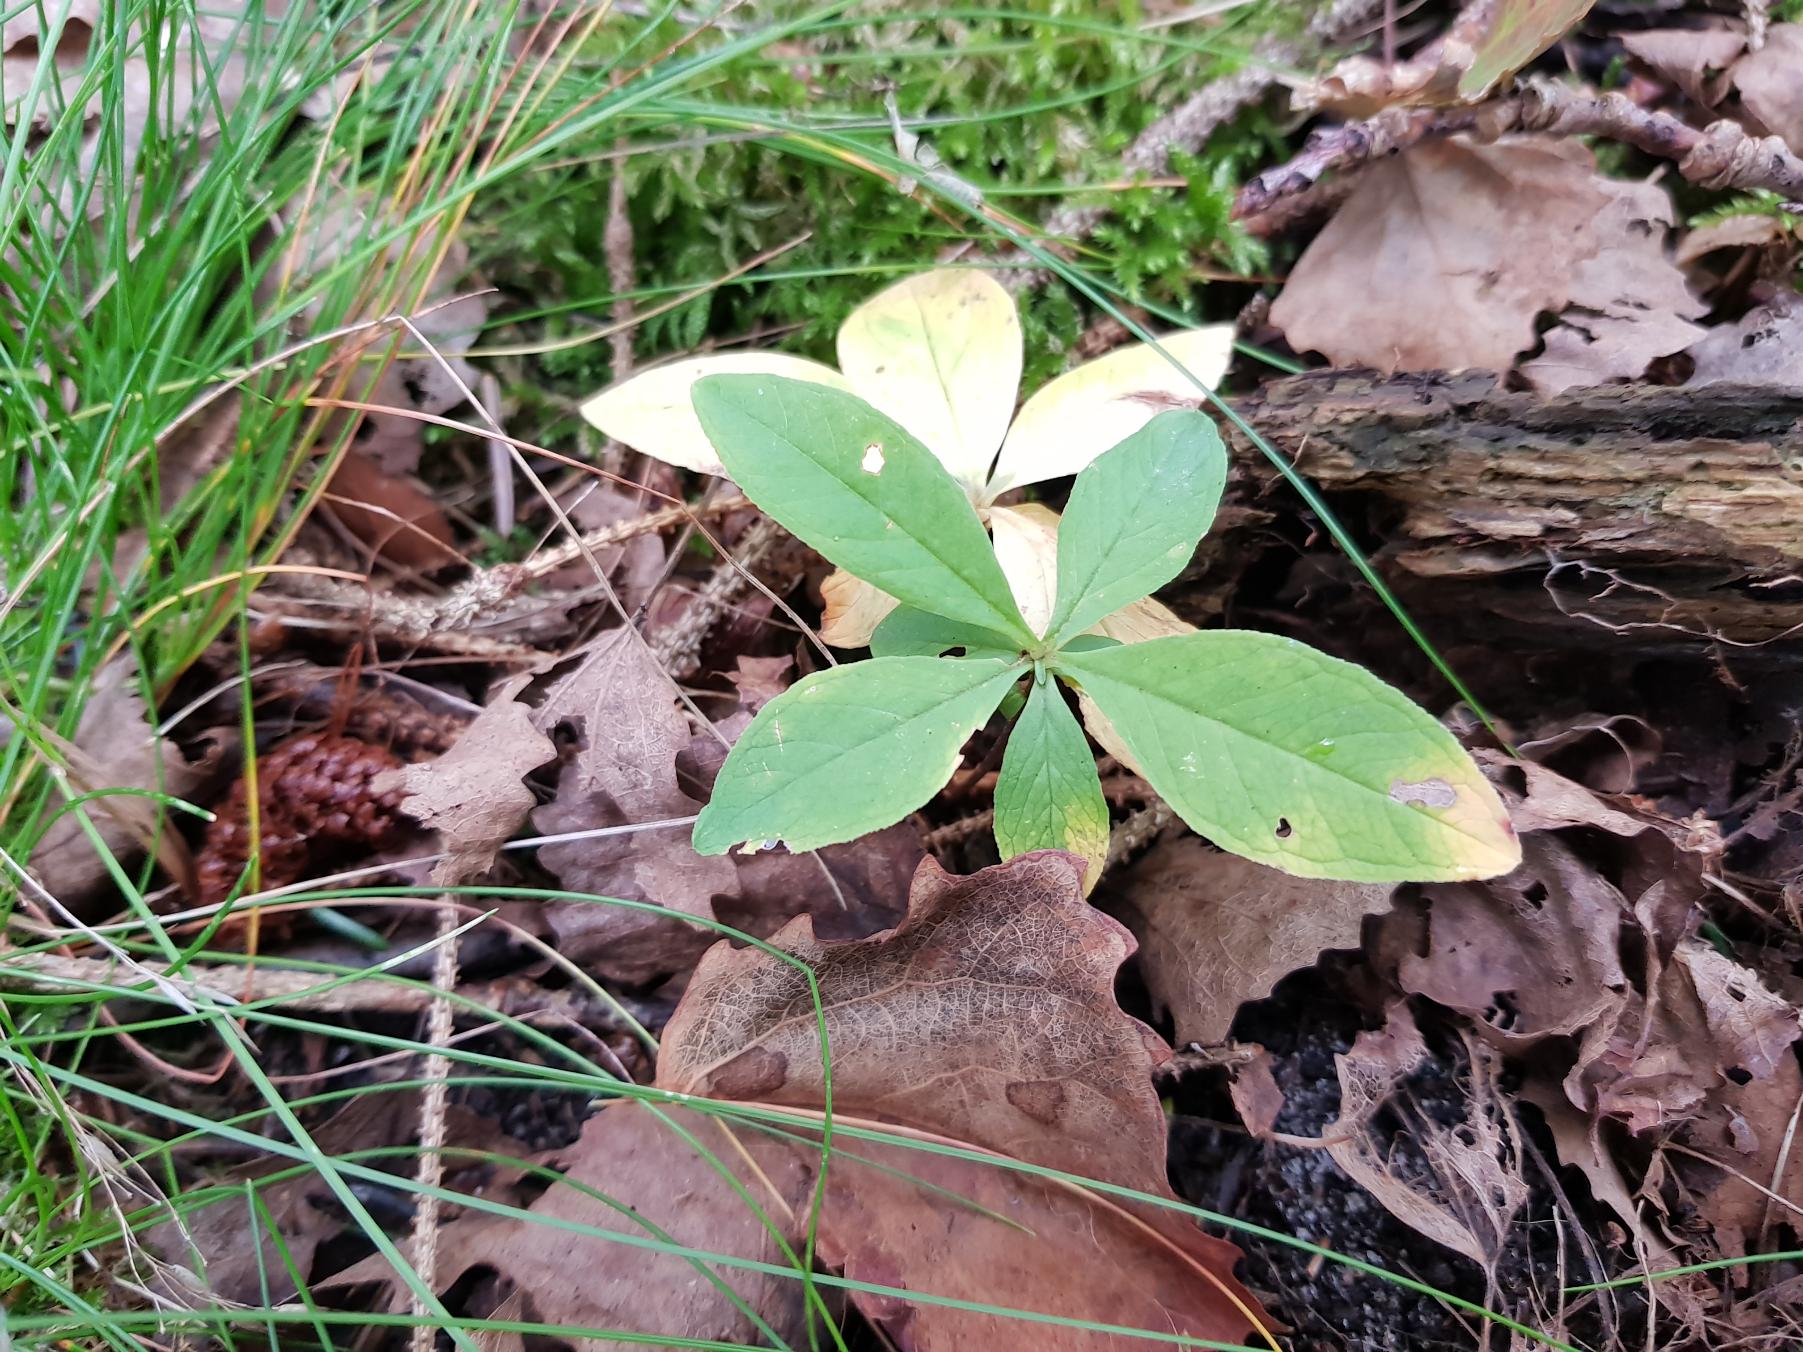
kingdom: Plantae
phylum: Tracheophyta
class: Magnoliopsida
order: Ericales
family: Primulaceae
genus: Lysimachia
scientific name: Lysimachia europaea
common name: Skovstjerne
